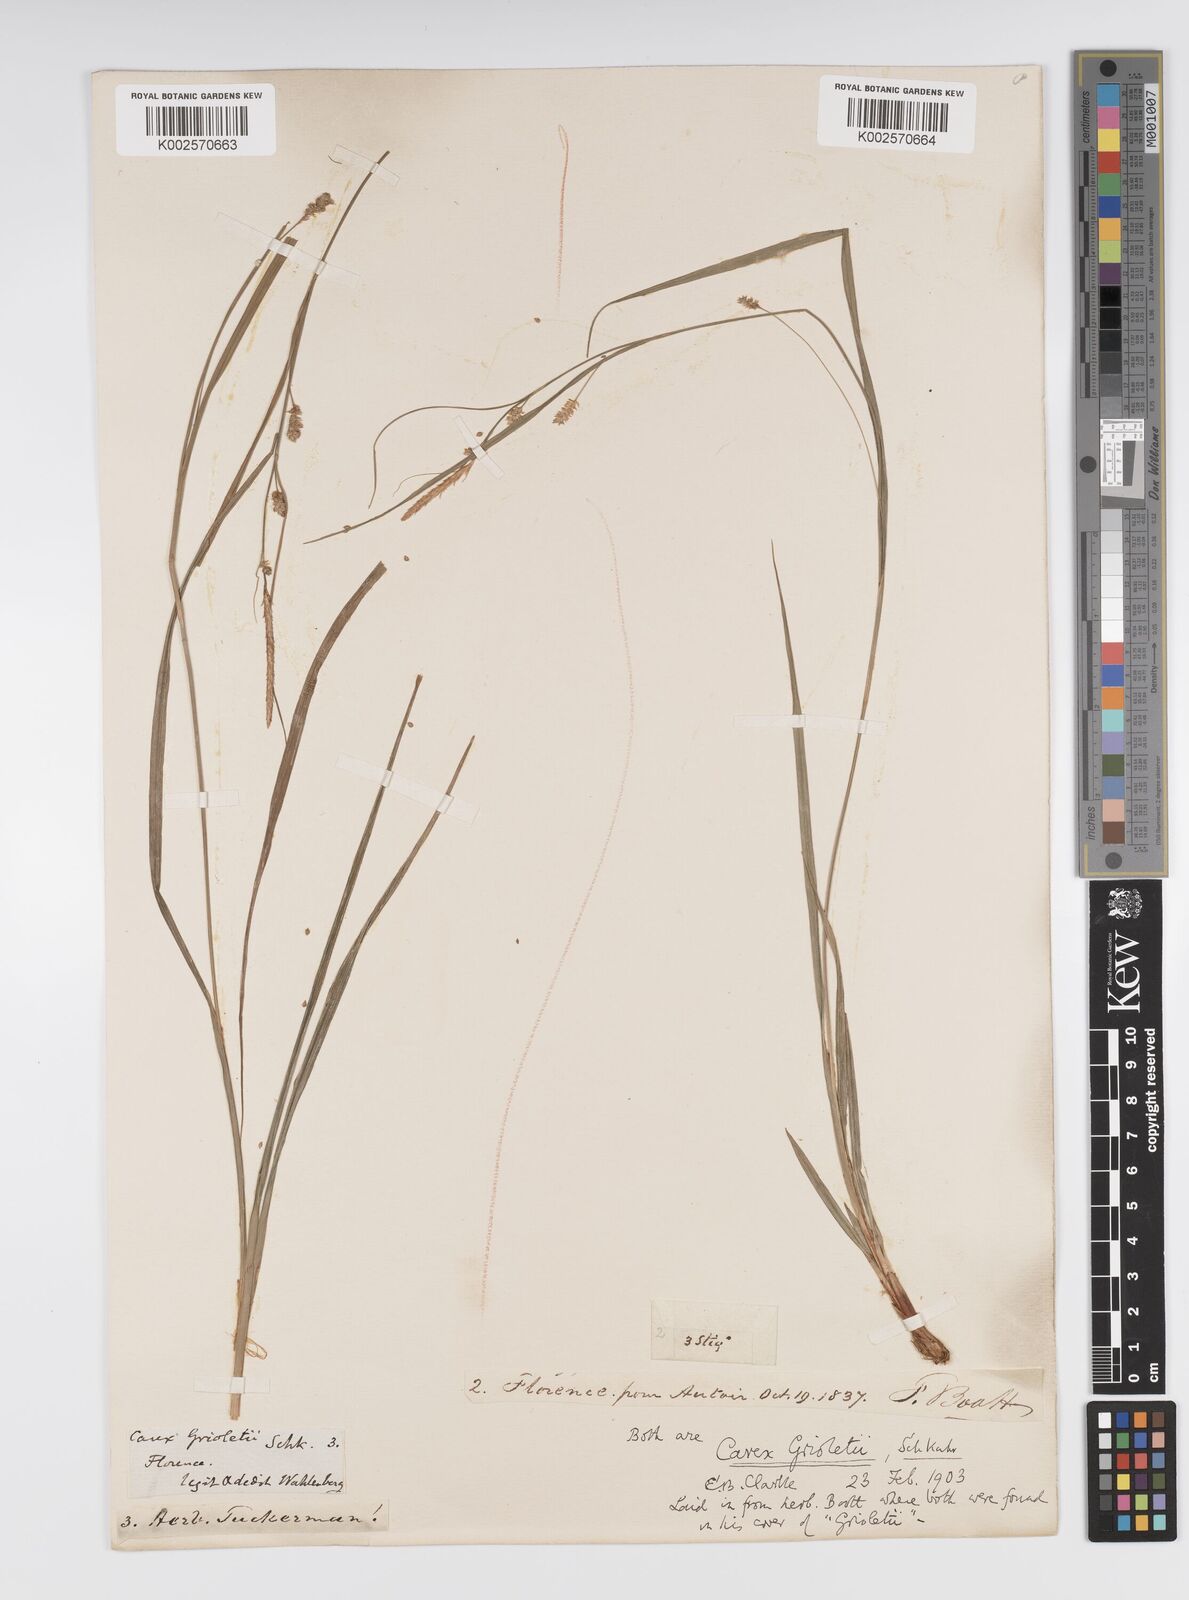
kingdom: Plantae
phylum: Tracheophyta
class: Liliopsida
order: Poales
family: Cyperaceae
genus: Carex
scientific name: Carex grioletii
